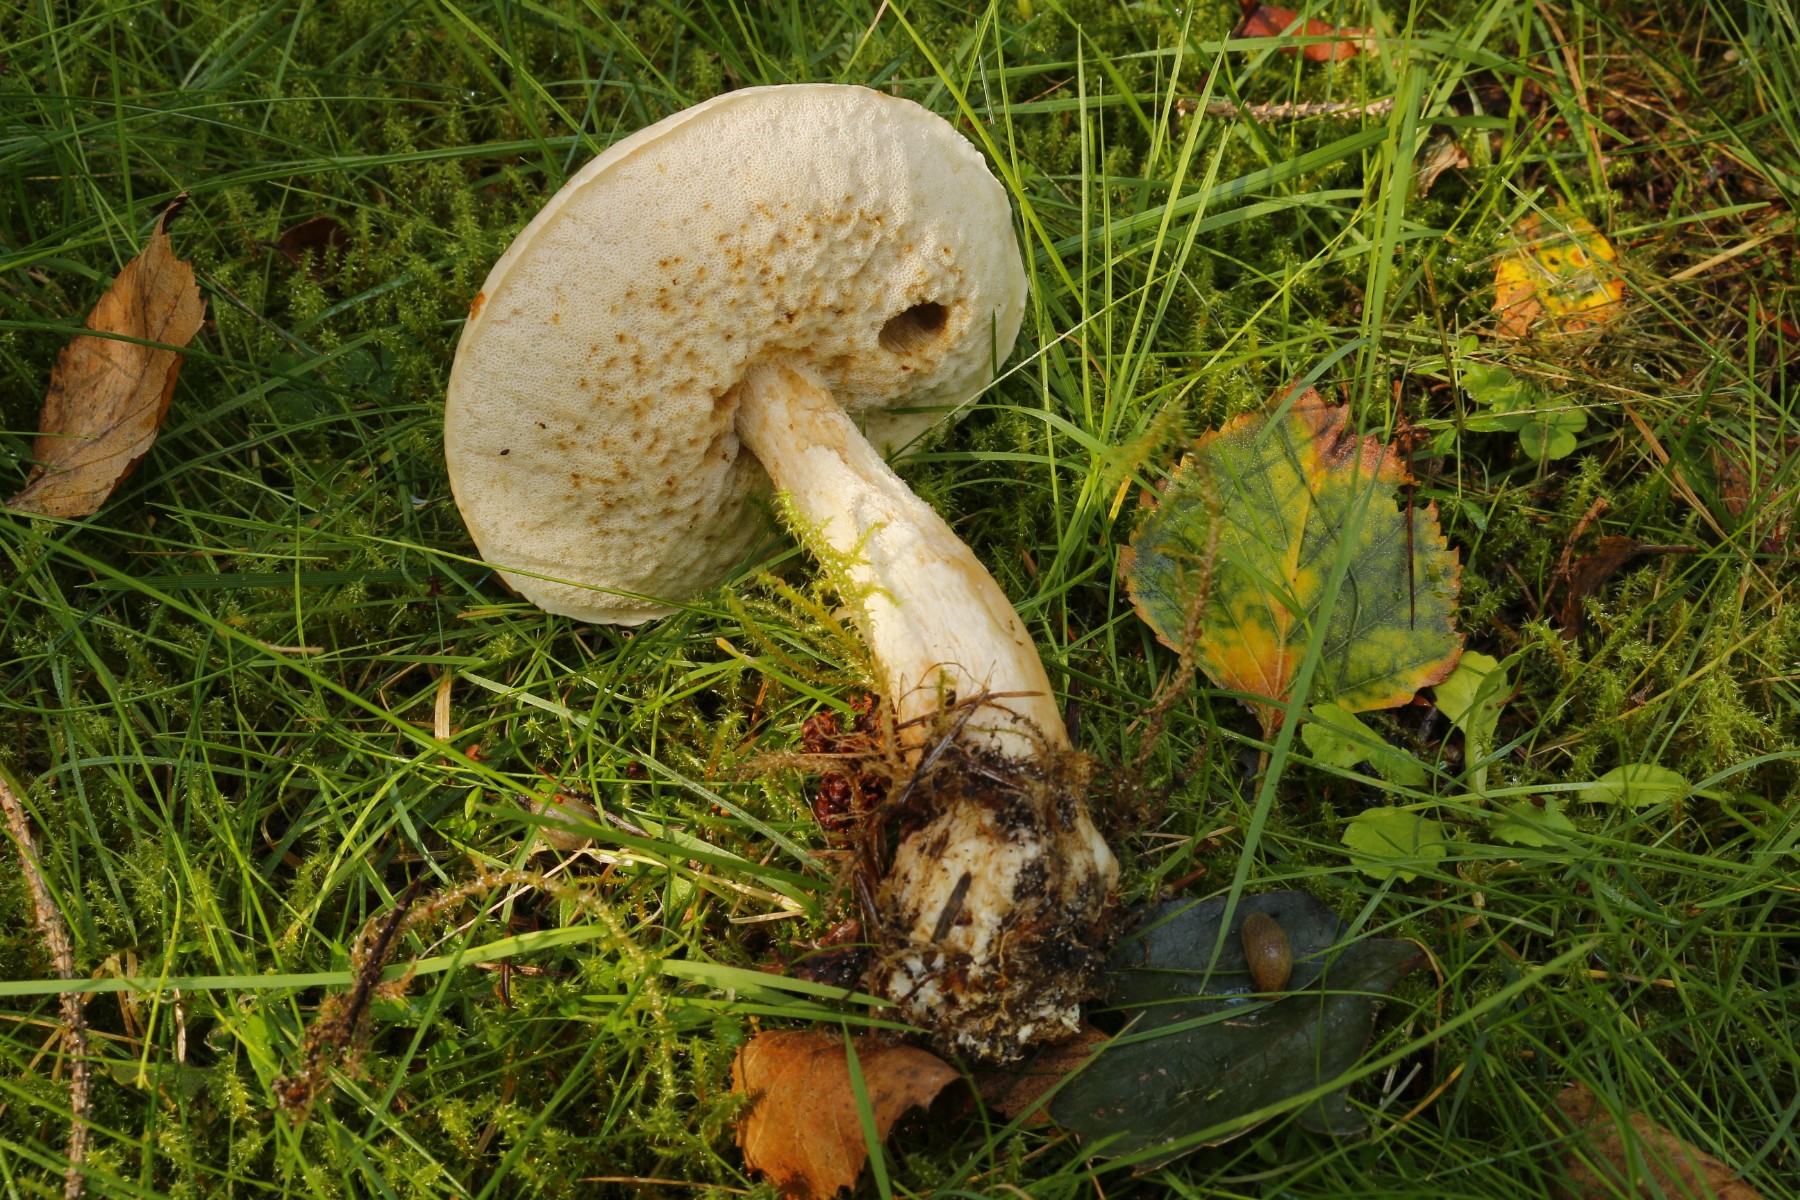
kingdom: Fungi
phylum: Basidiomycota
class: Agaricomycetes
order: Boletales
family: Boletaceae
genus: Leccinum
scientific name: Leccinum scabrum
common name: hvid skælrørhat
